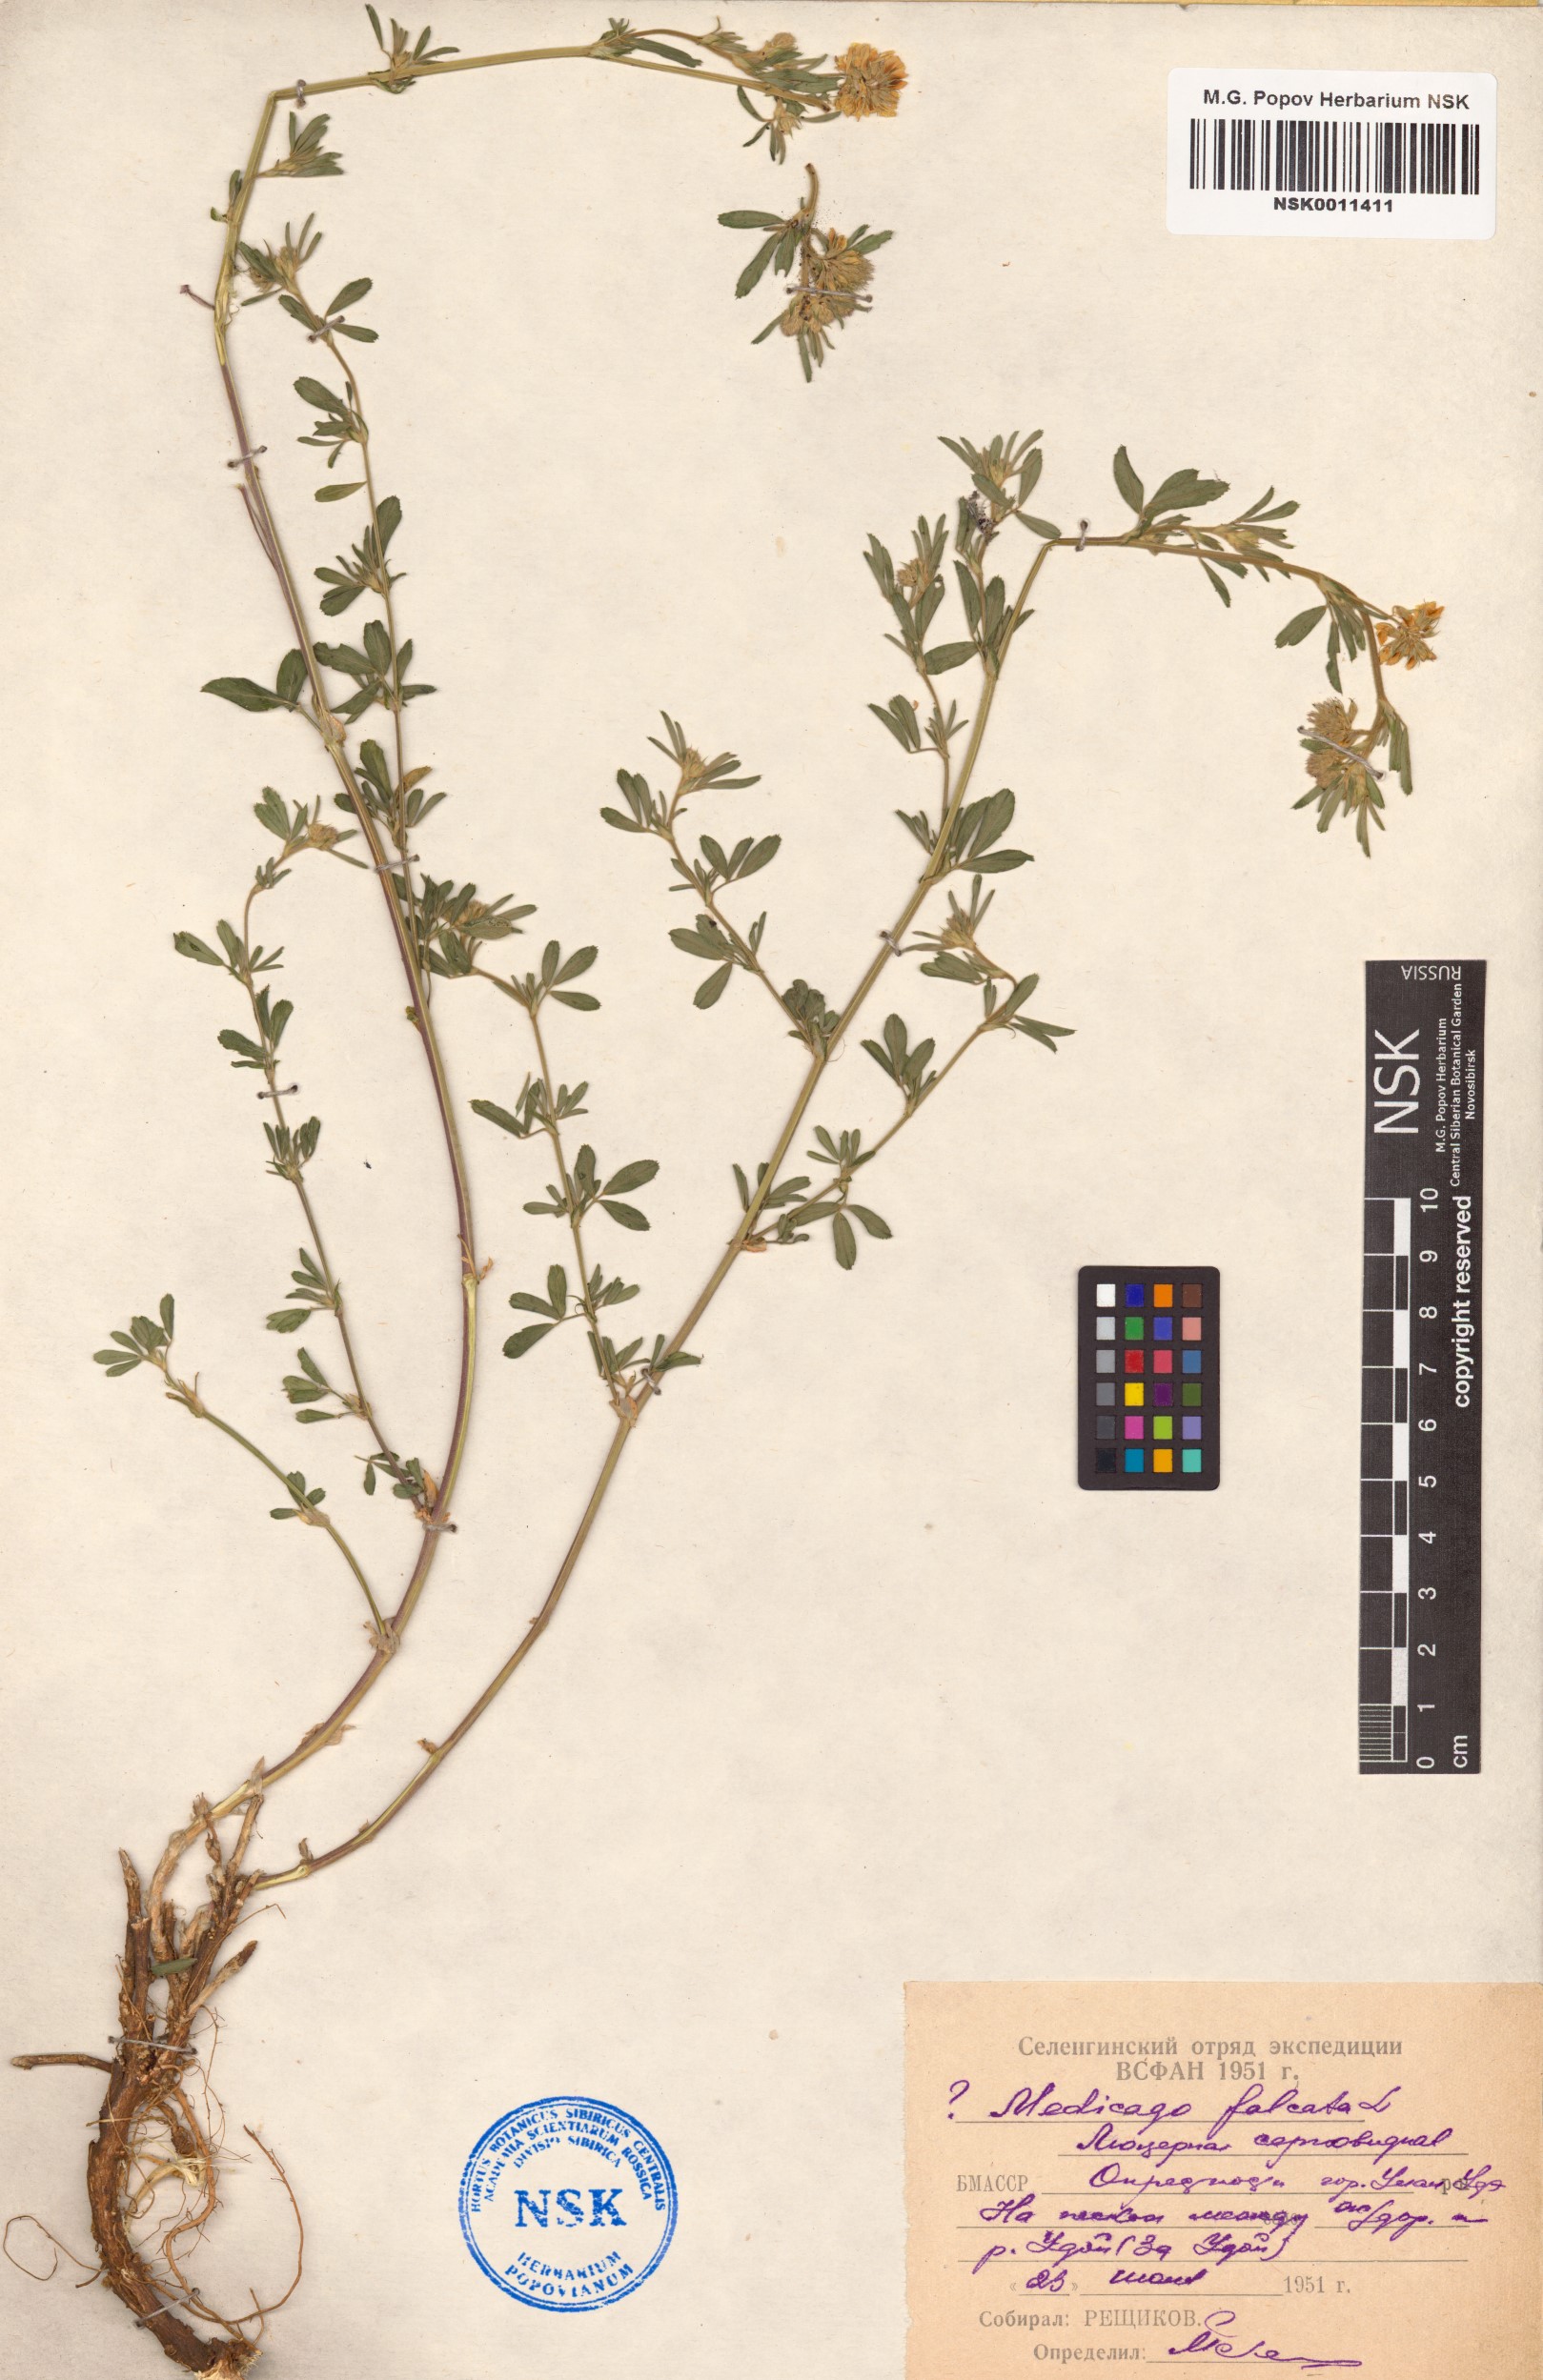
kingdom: Plantae
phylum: Tracheophyta
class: Magnoliopsida
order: Fabales
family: Fabaceae
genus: Medicago
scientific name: Medicago falcata
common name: Sickle medick
